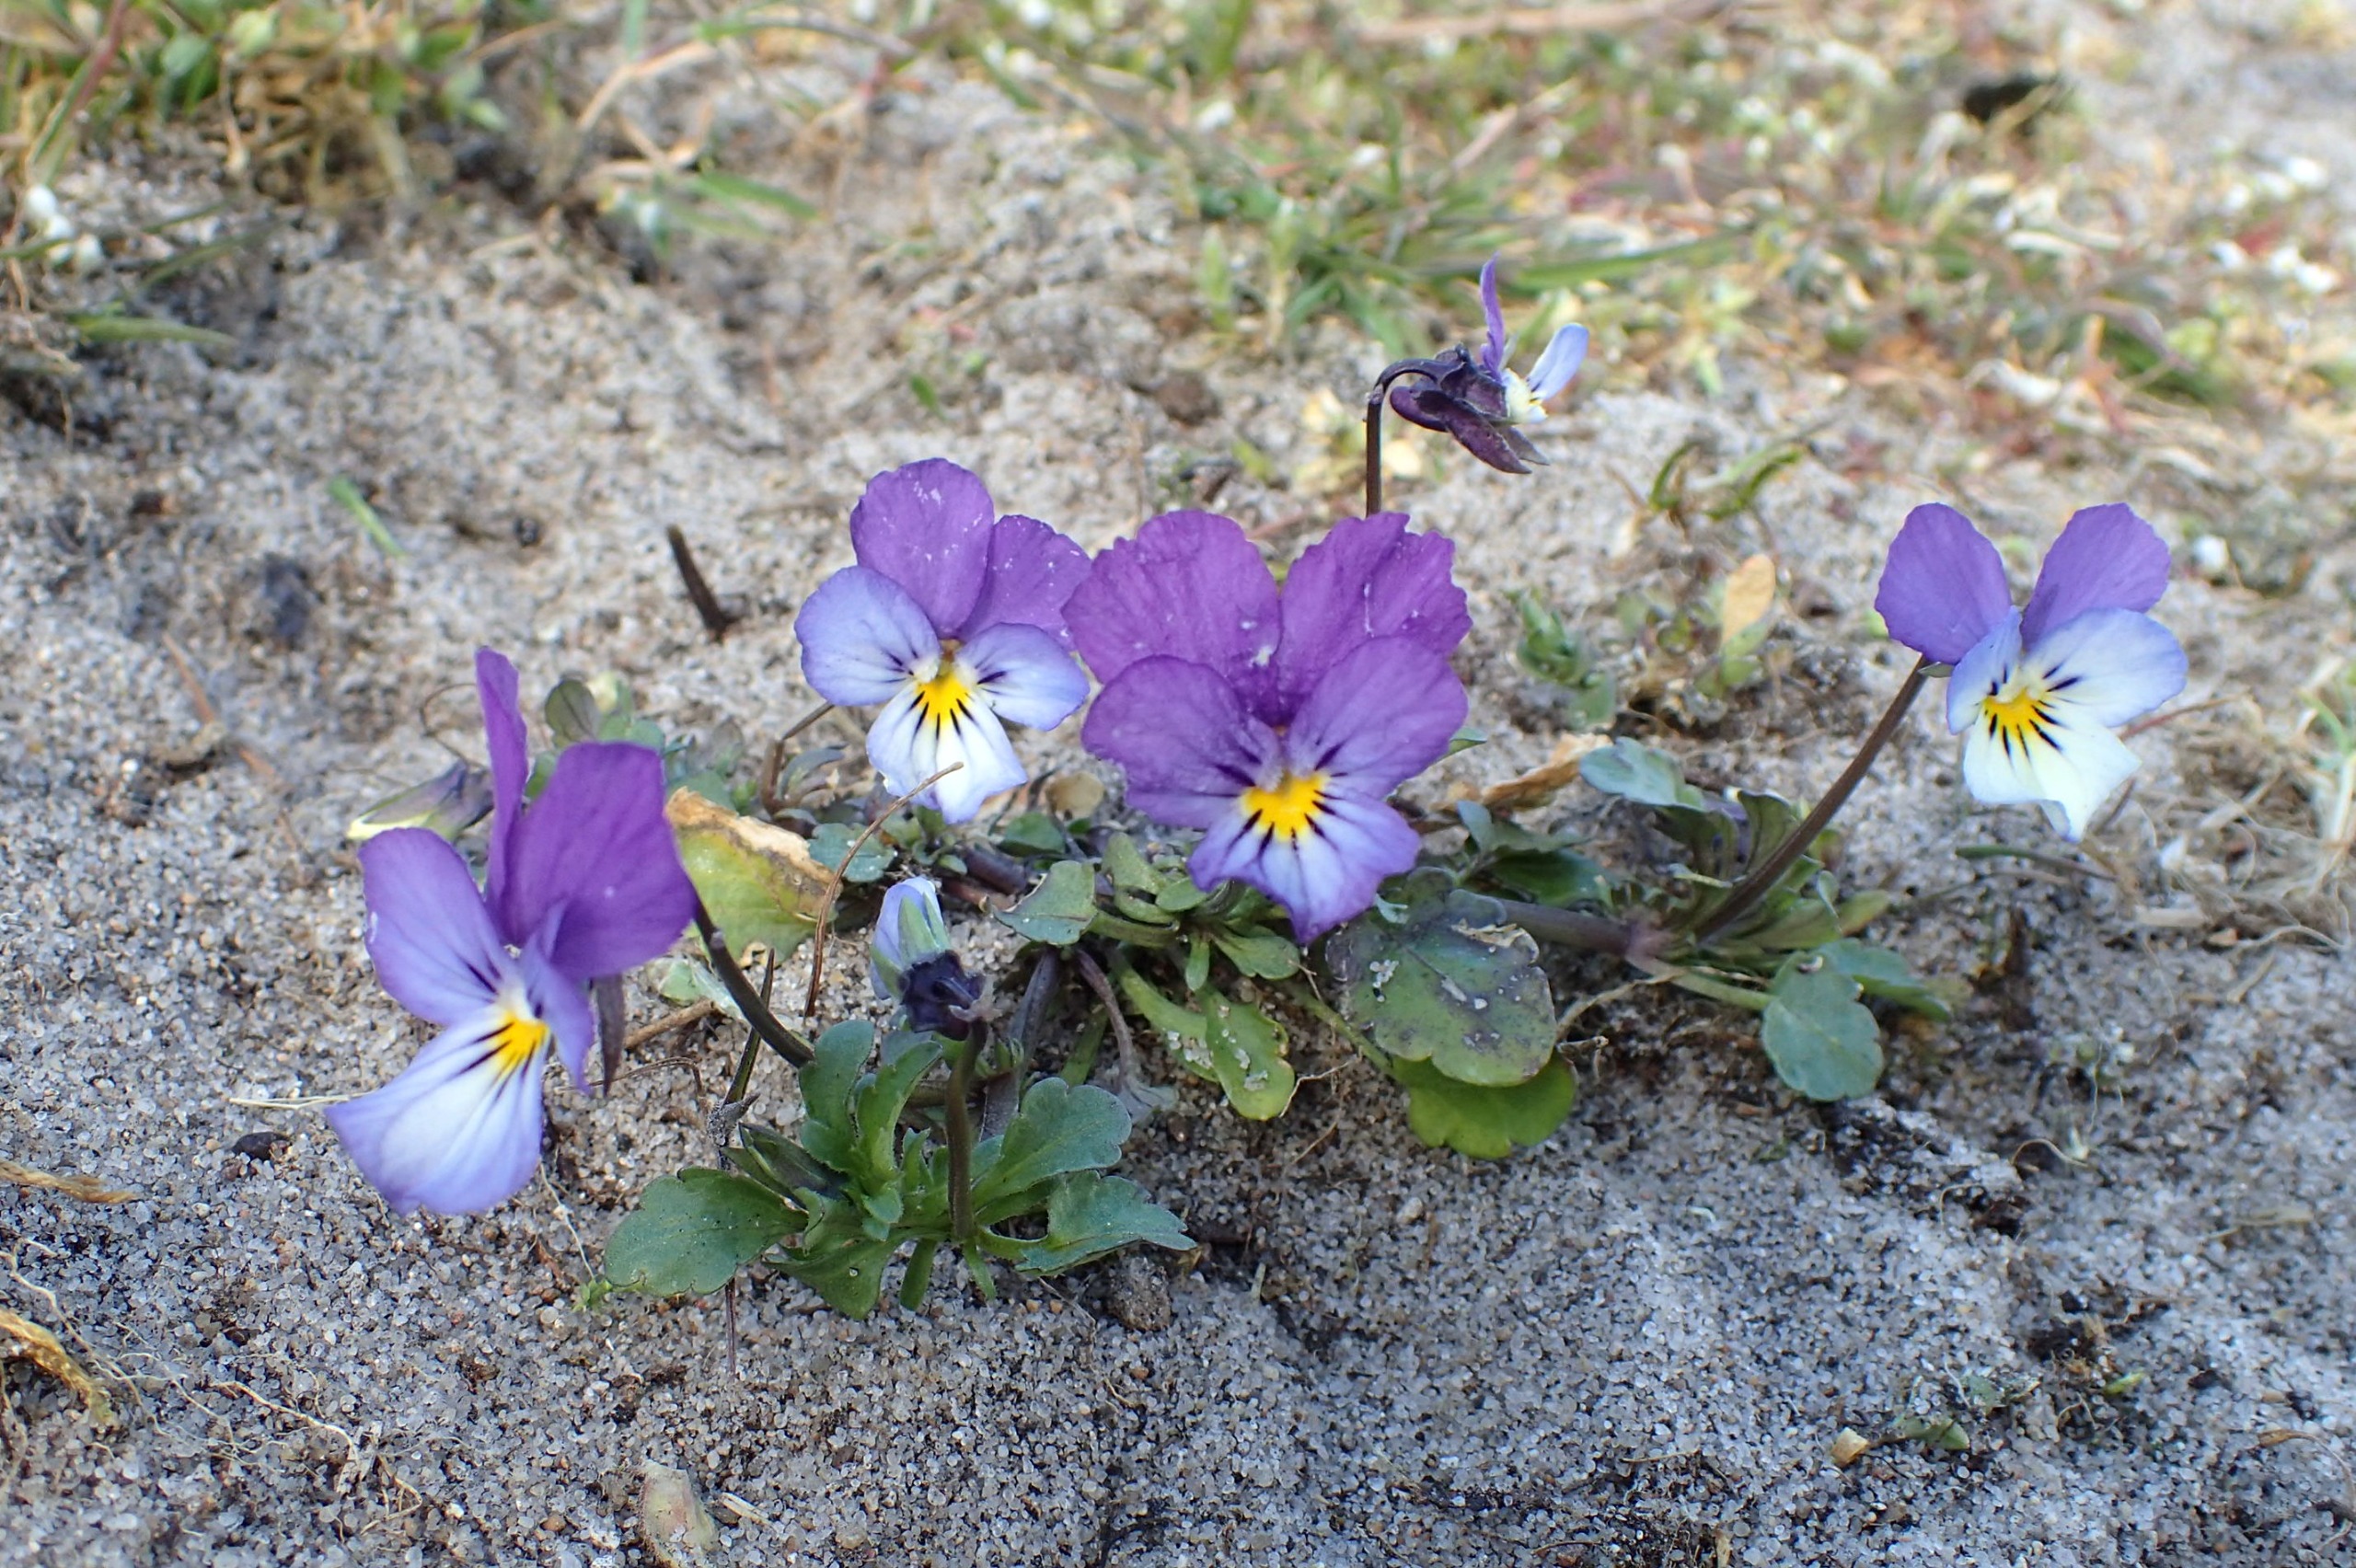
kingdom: Plantae
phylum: Tracheophyta
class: Magnoliopsida
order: Malpighiales
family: Violaceae
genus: Viola
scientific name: Viola tricolor
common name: Almindelig stedmoderblomst
